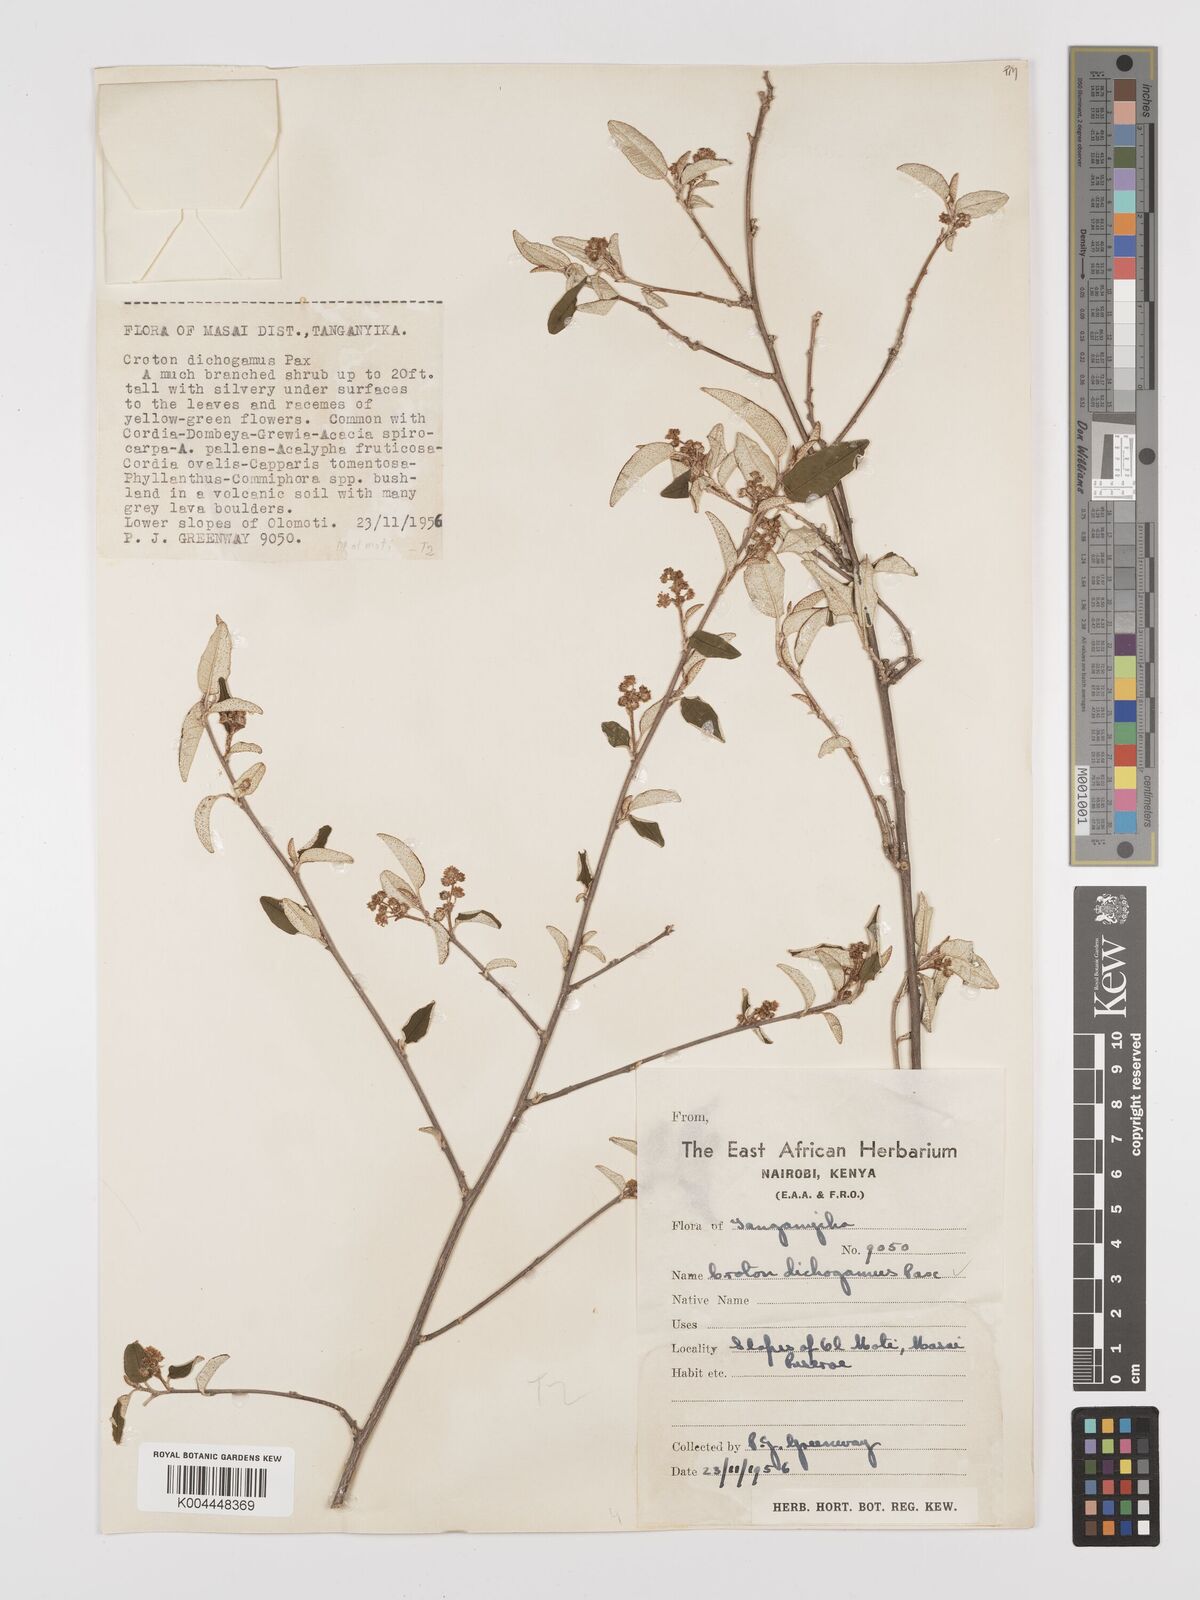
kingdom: Plantae
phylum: Tracheophyta
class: Magnoliopsida
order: Malpighiales
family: Euphorbiaceae
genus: Croton
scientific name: Croton dichogamus
